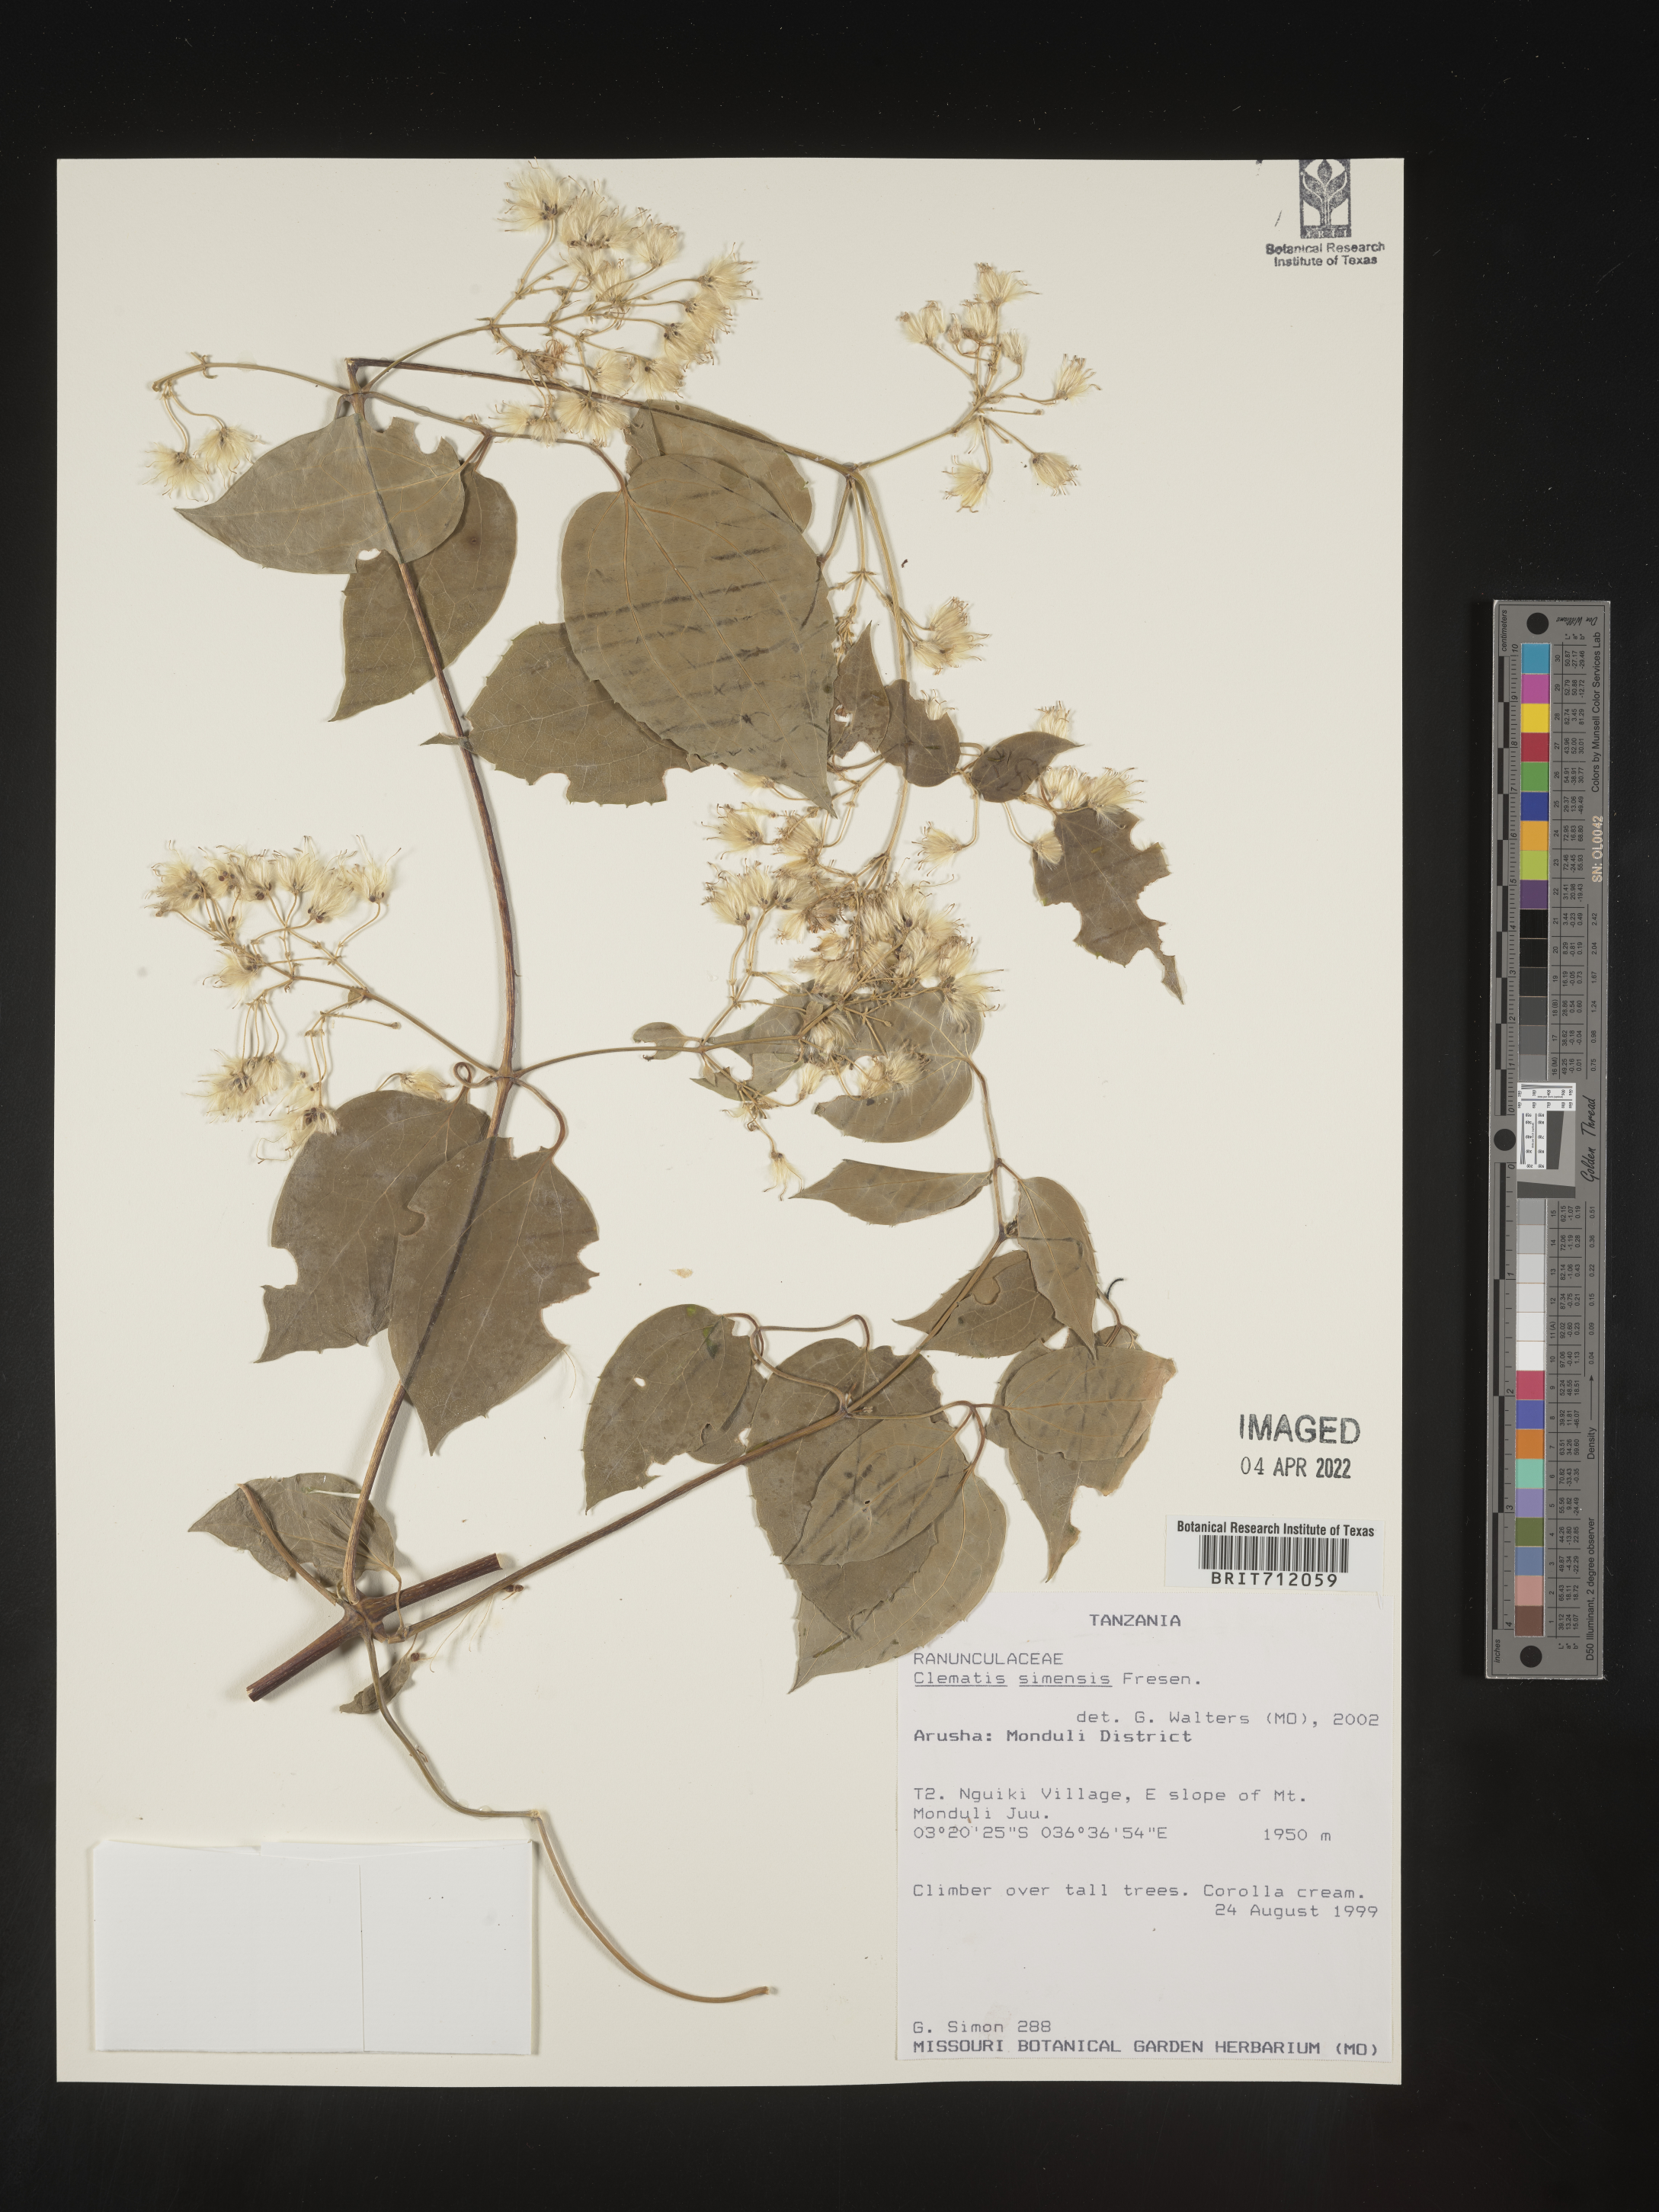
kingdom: Plantae
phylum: Tracheophyta
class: Magnoliopsida
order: Ranunculales
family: Ranunculaceae
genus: Clematis
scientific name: Clematis
